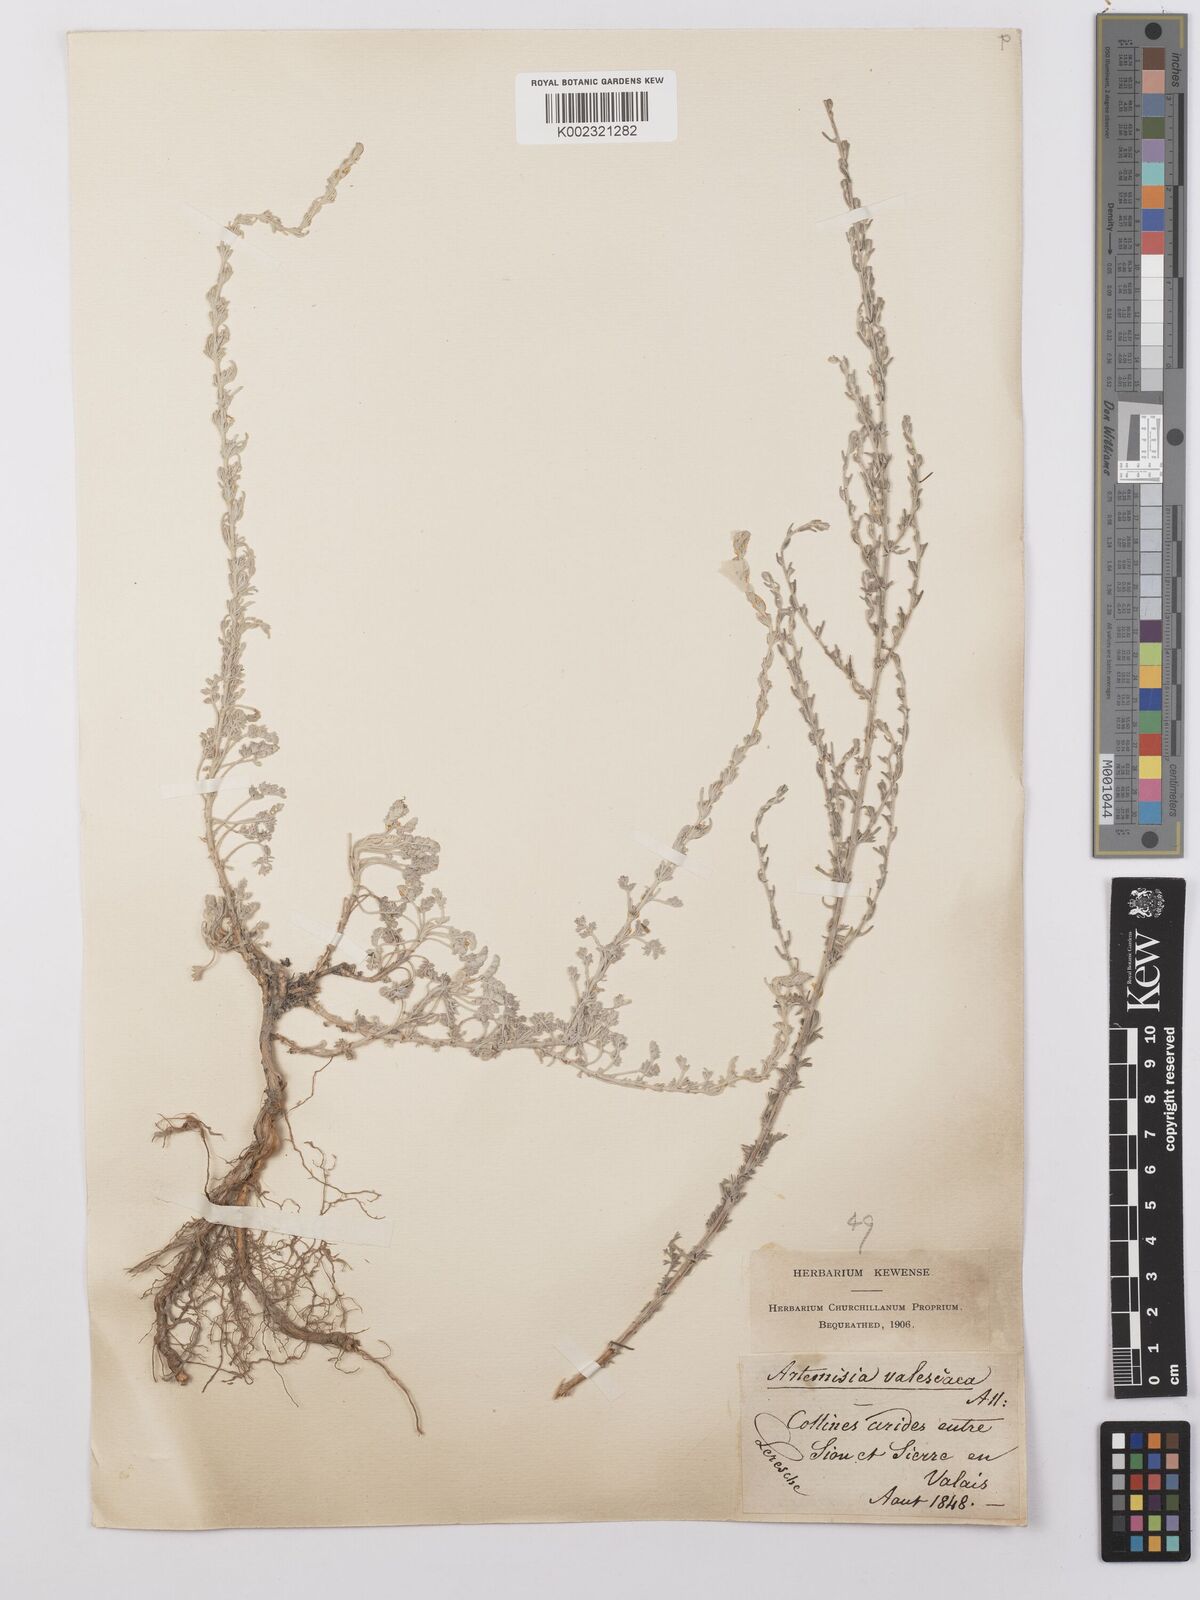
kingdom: Plantae
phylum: Tracheophyta
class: Magnoliopsida
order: Asterales
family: Asteraceae
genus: Artemisia
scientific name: Artemisia vallesiaca
